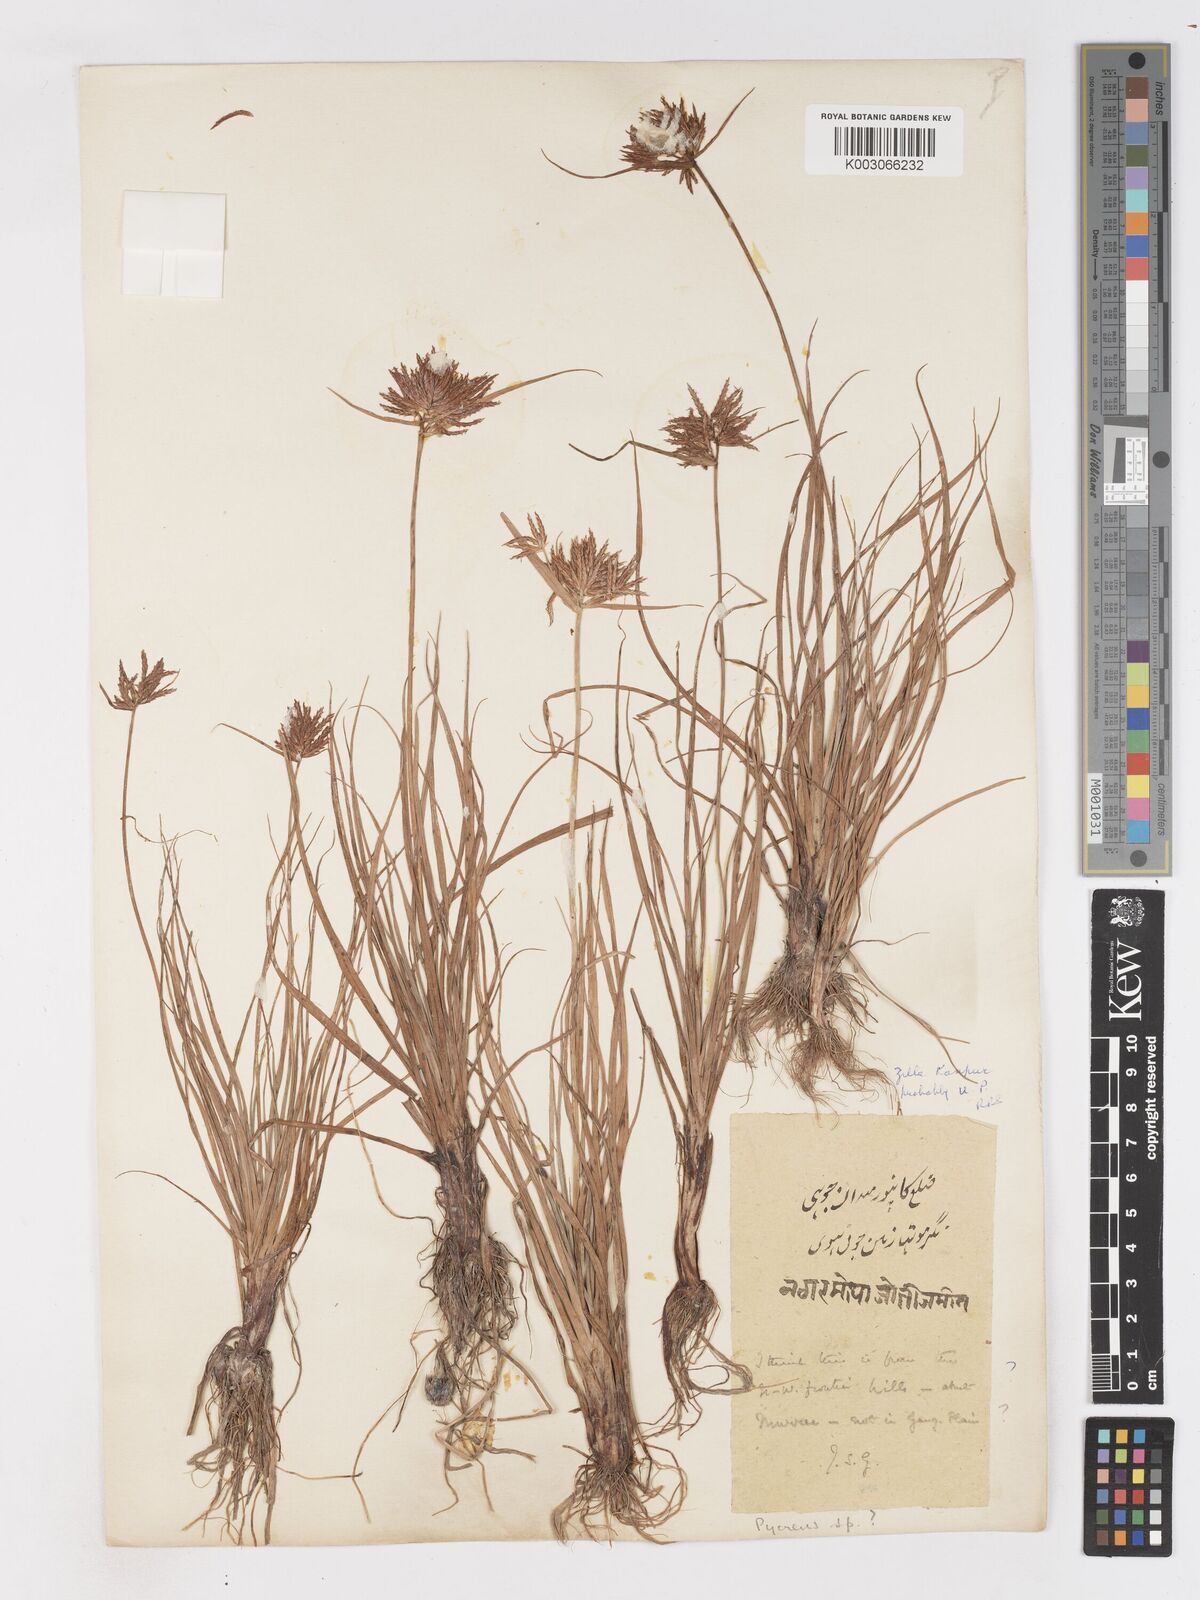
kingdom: Plantae
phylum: Tracheophyta
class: Liliopsida
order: Poales
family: Cyperaceae
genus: Cyperus
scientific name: Cyperus bulbosus
